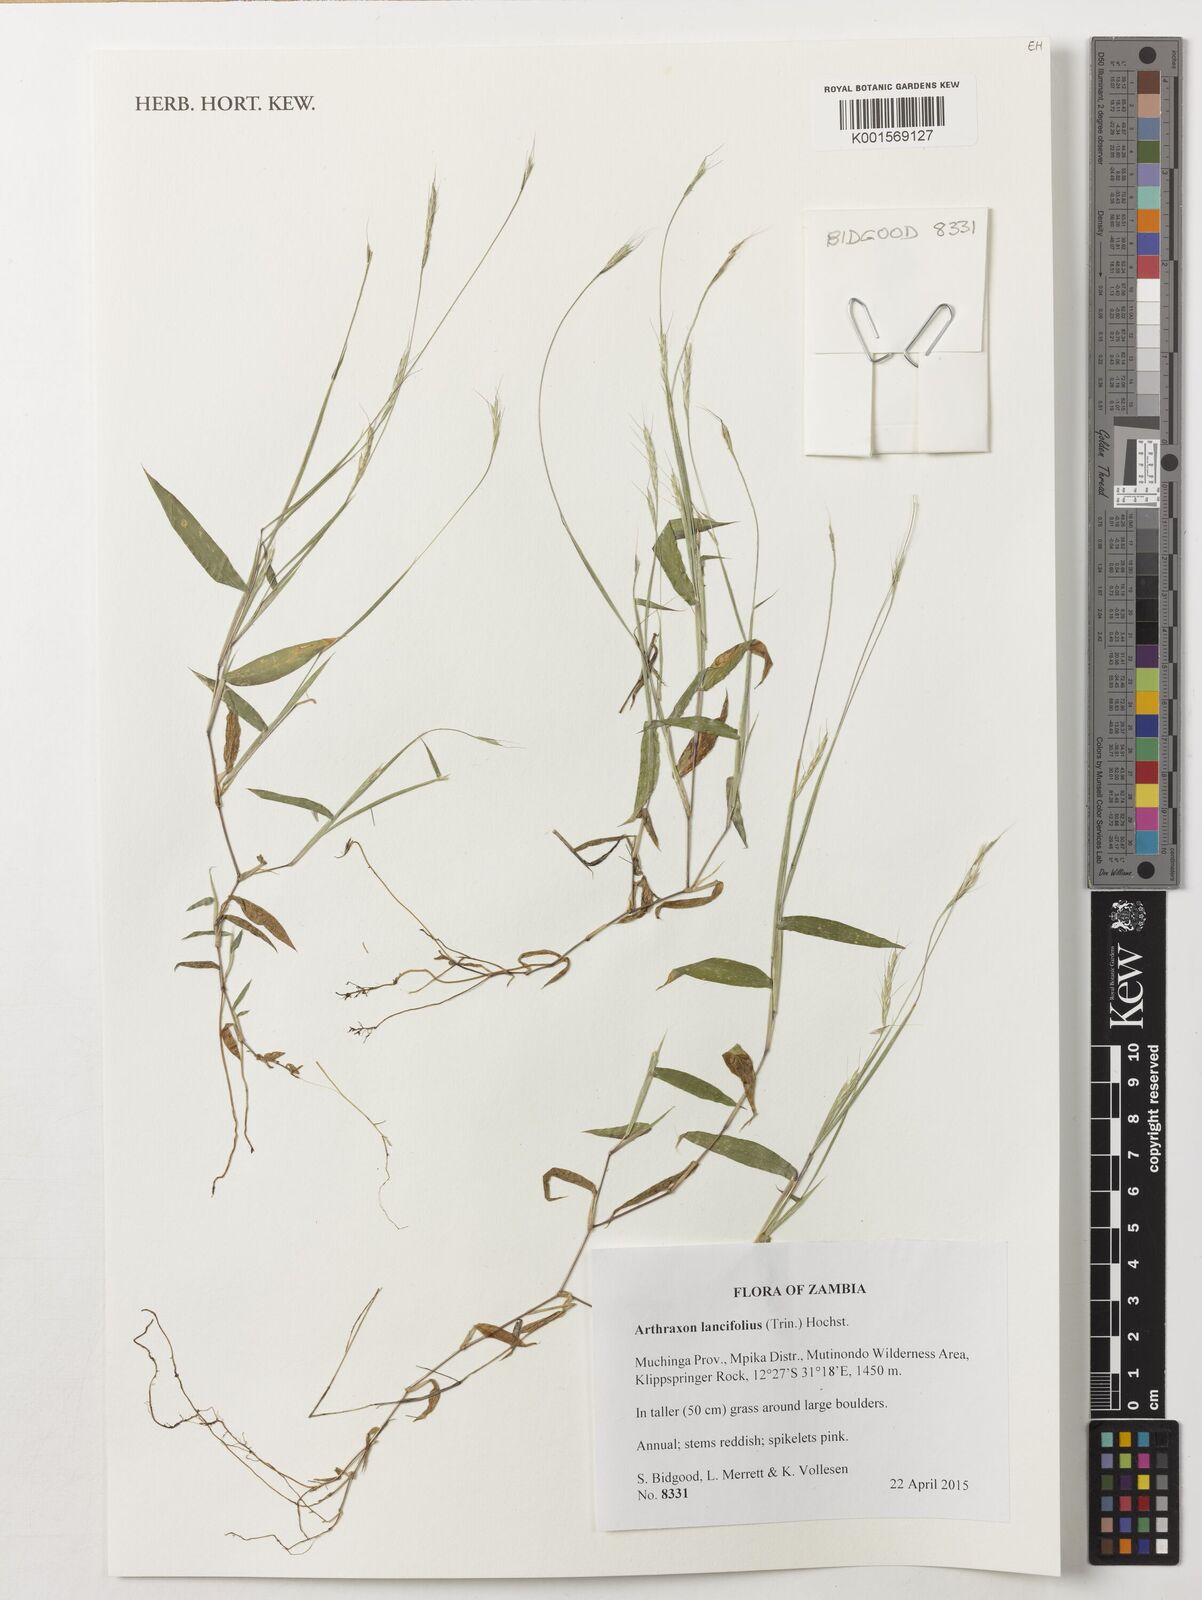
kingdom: Plantae
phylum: Tracheophyta
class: Liliopsida
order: Poales
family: Poaceae
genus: Arthraxon
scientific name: Arthraxon lancifolius
